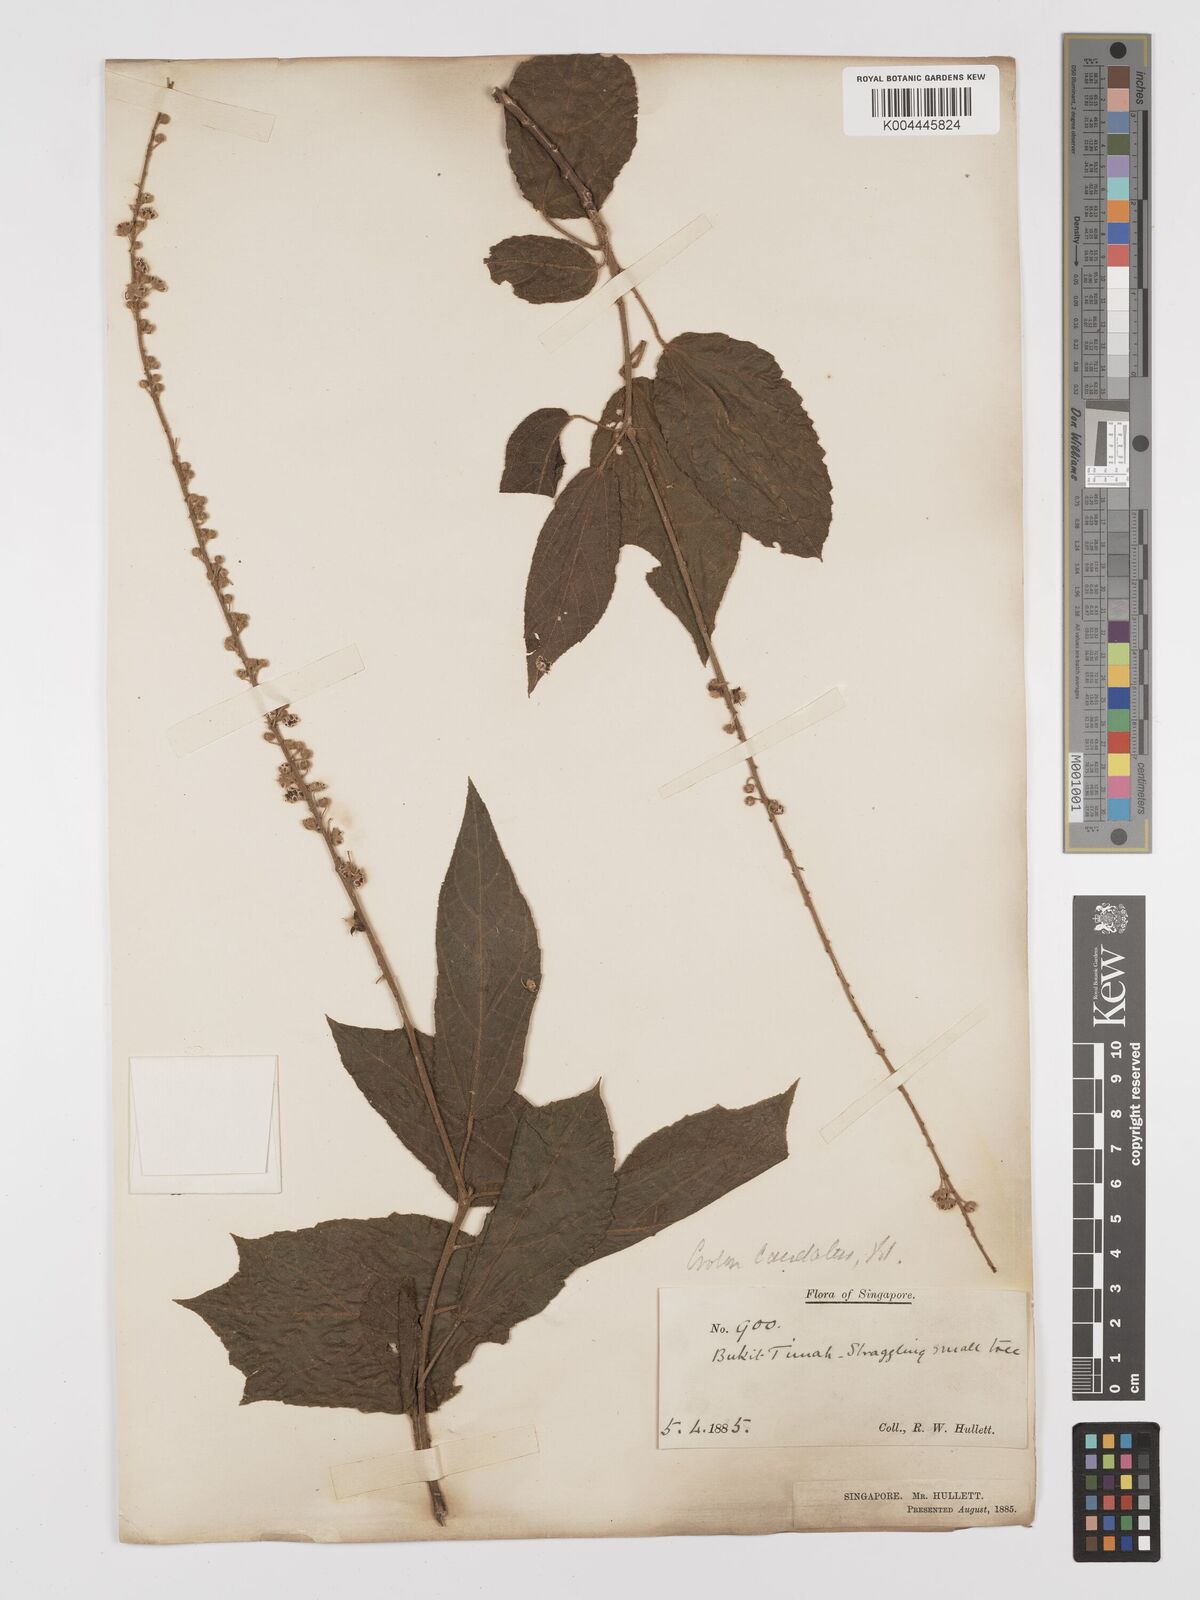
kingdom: Plantae
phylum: Tracheophyta
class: Magnoliopsida
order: Malpighiales
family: Euphorbiaceae
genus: Croton
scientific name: Croton caudatus
